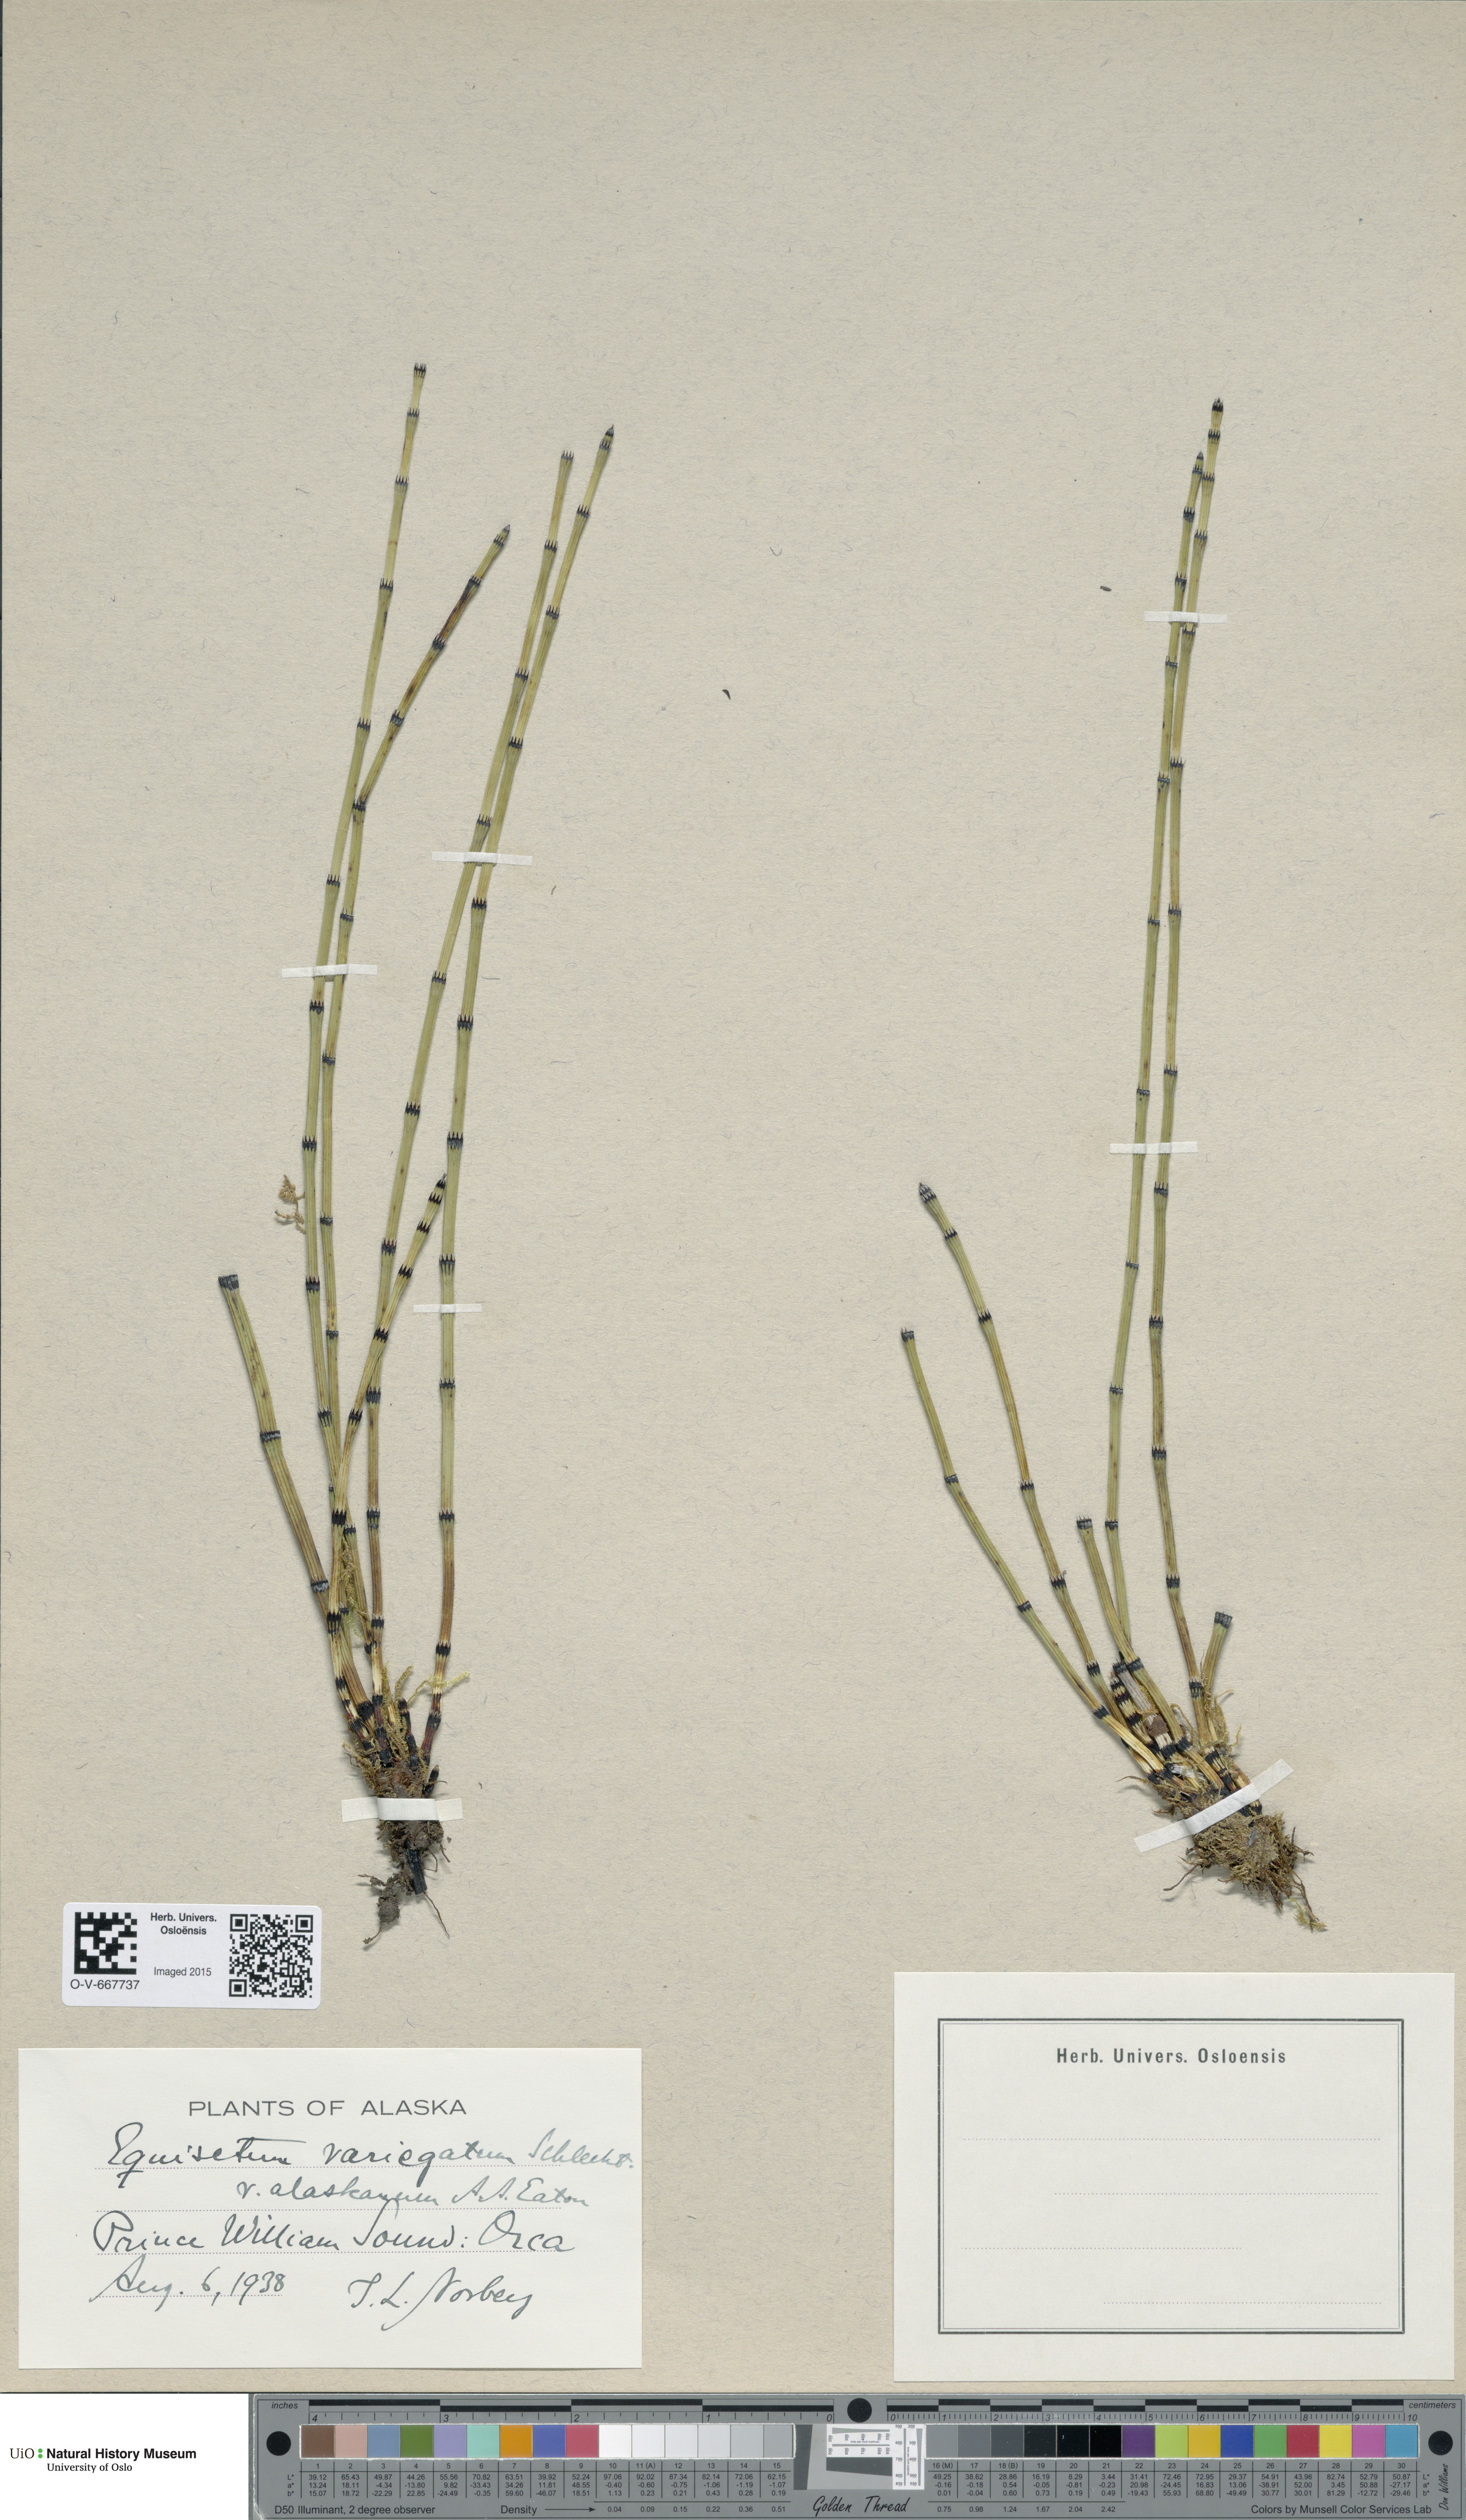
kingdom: Plantae
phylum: Tracheophyta
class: Polypodiopsida
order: Equisetales
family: Equisetaceae
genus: Equisetum
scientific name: Equisetum variegatum
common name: Variegated horsetail
